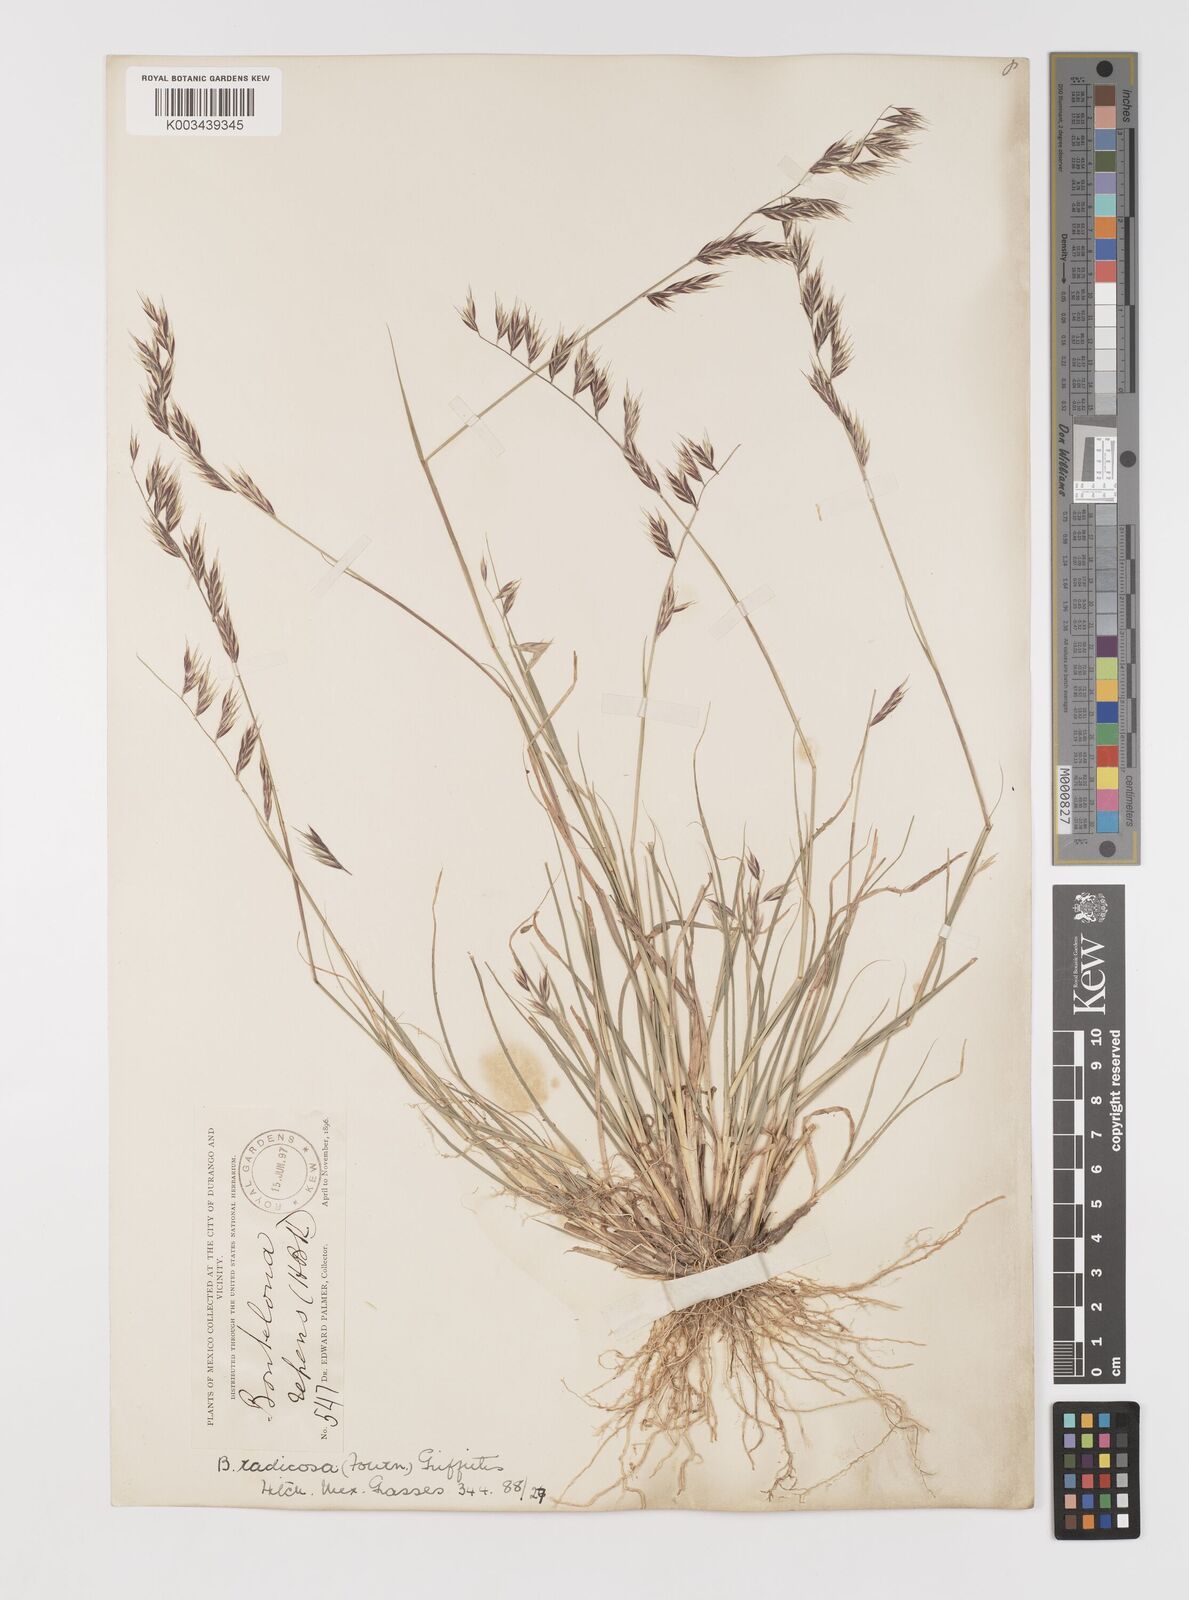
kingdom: Plantae
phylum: Tracheophyta
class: Liliopsida
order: Poales
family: Poaceae
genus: Bouteloua
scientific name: Bouteloua radicosa
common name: Purple grama
